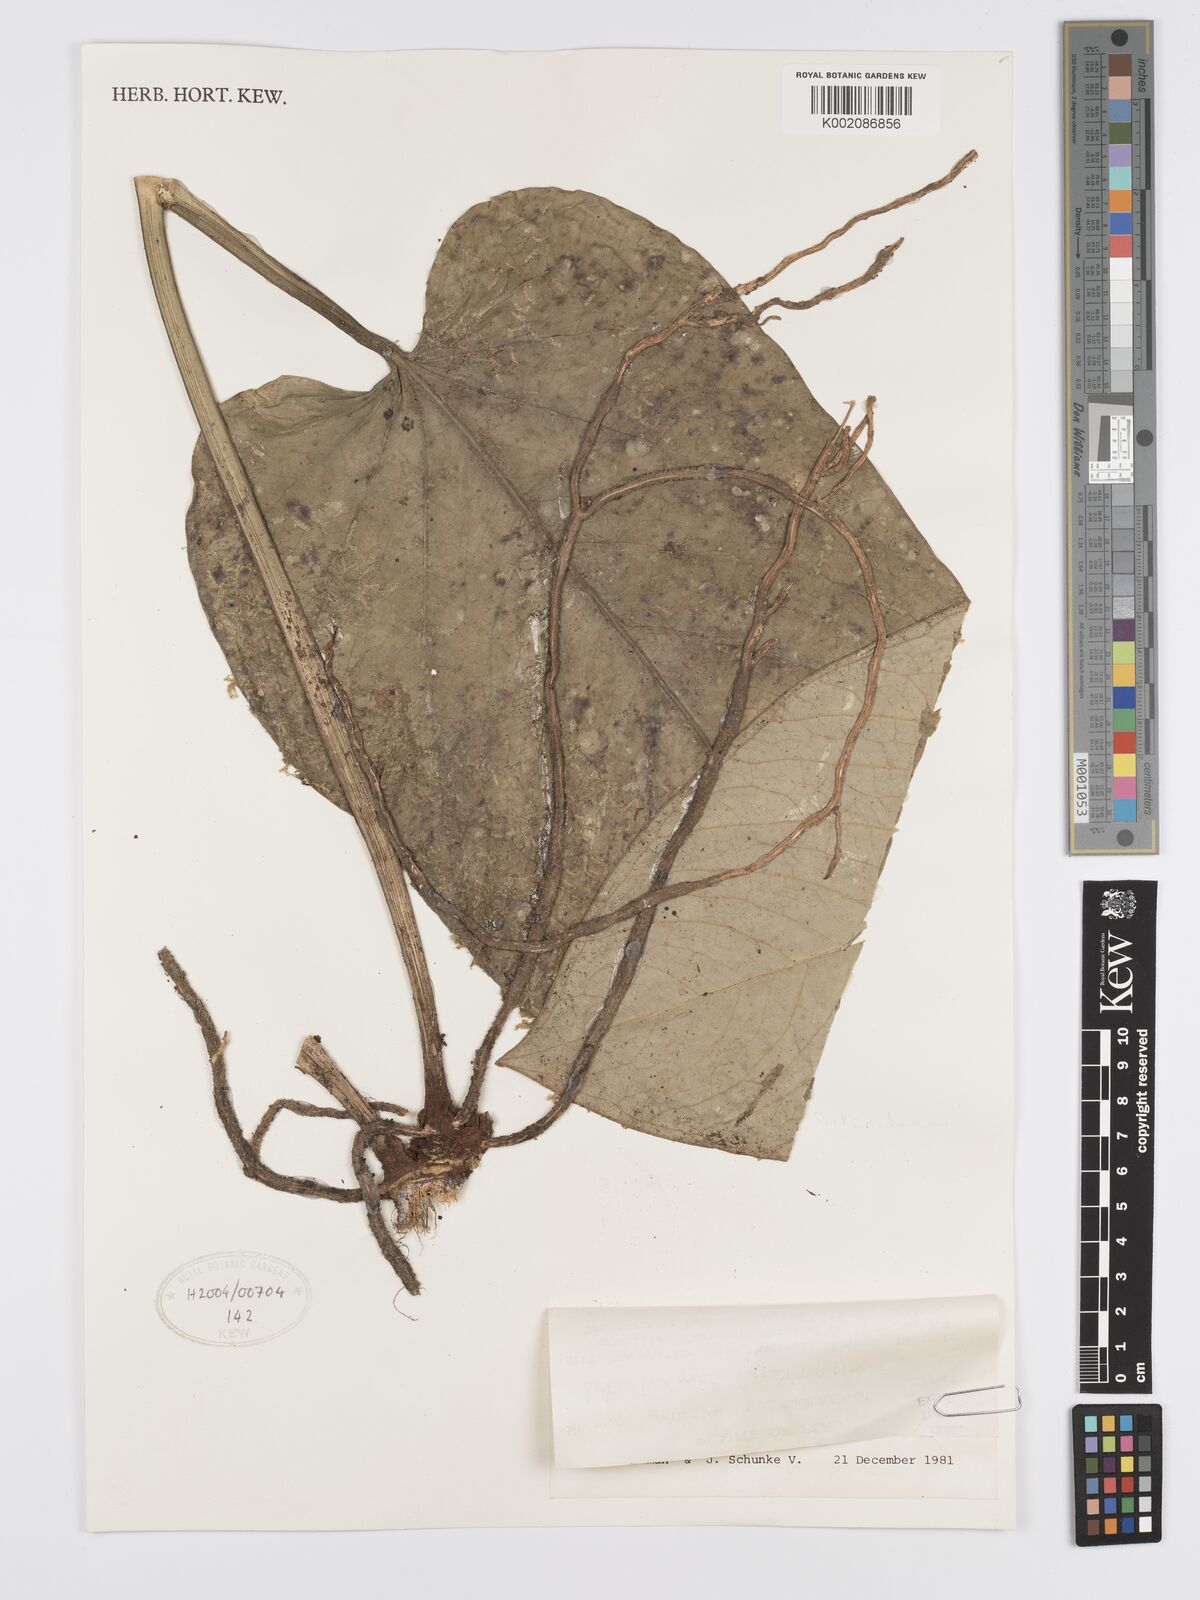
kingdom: Plantae
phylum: Tracheophyta
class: Liliopsida
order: Alismatales
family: Araceae
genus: Anthurium
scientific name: Anthurium pulcachense
